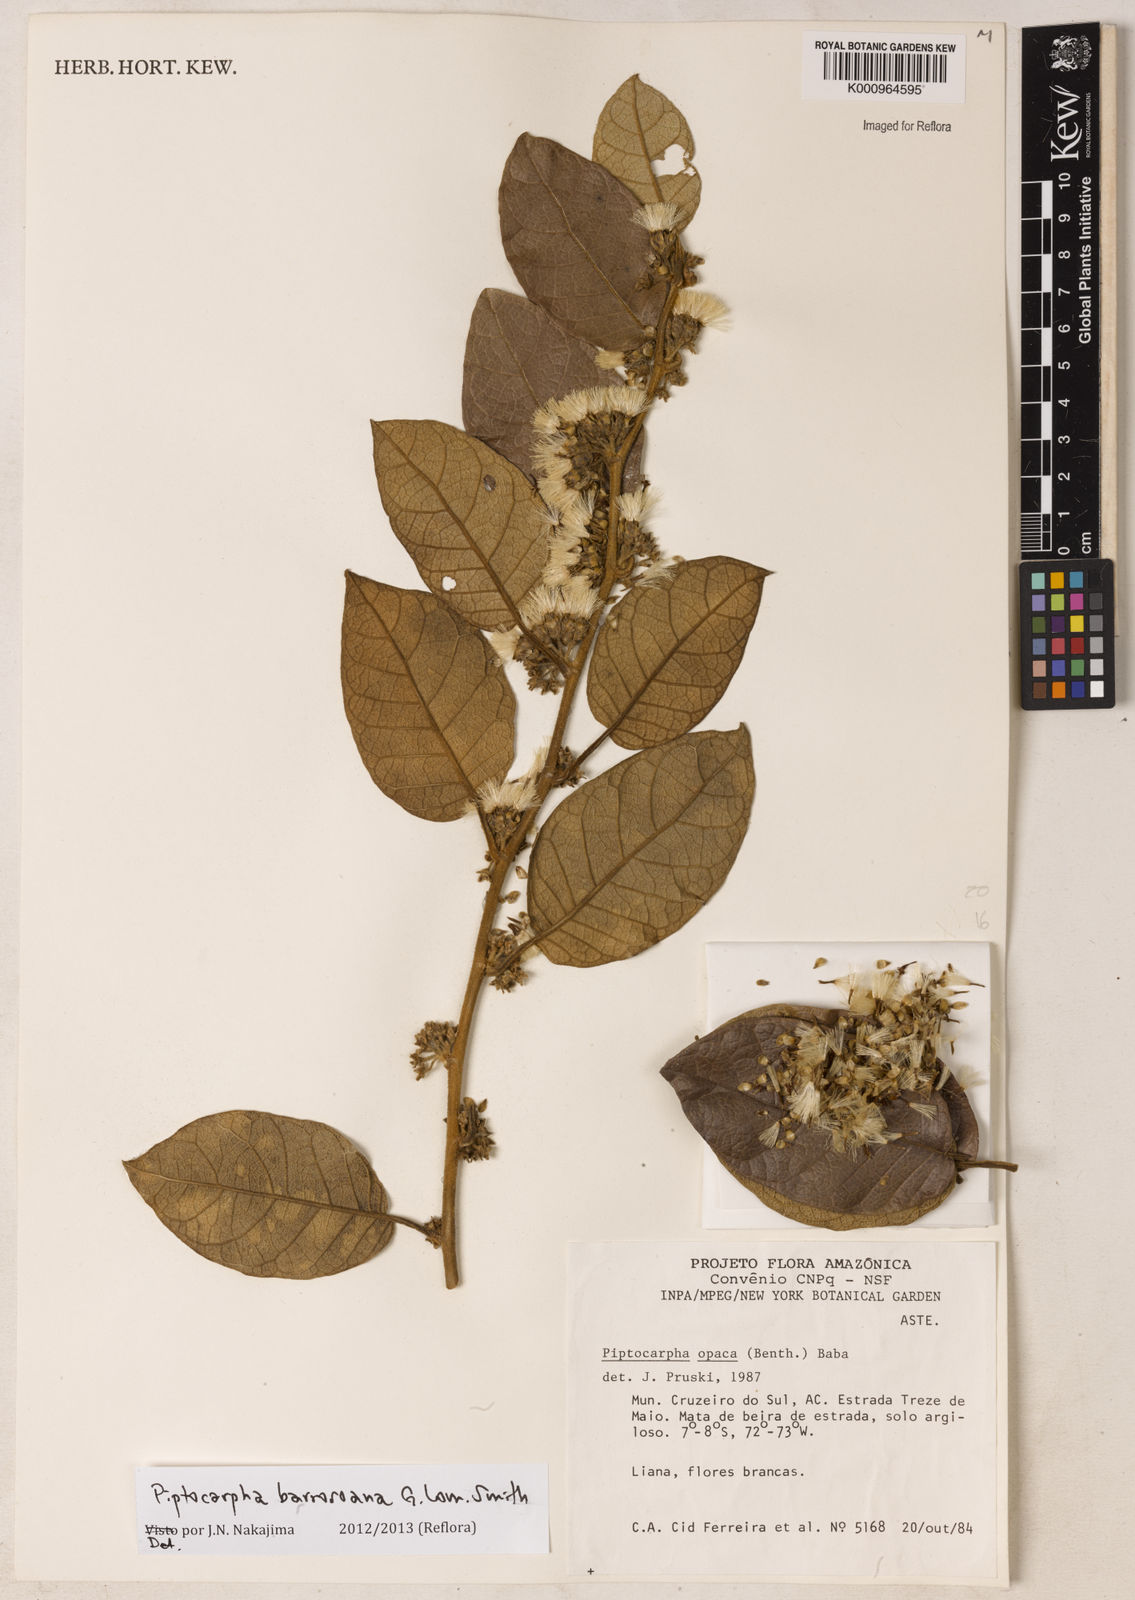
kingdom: Plantae
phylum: Tracheophyta
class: Magnoliopsida
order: Asterales
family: Asteraceae
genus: Piptocarpha
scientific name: Piptocarpha barrosoana
